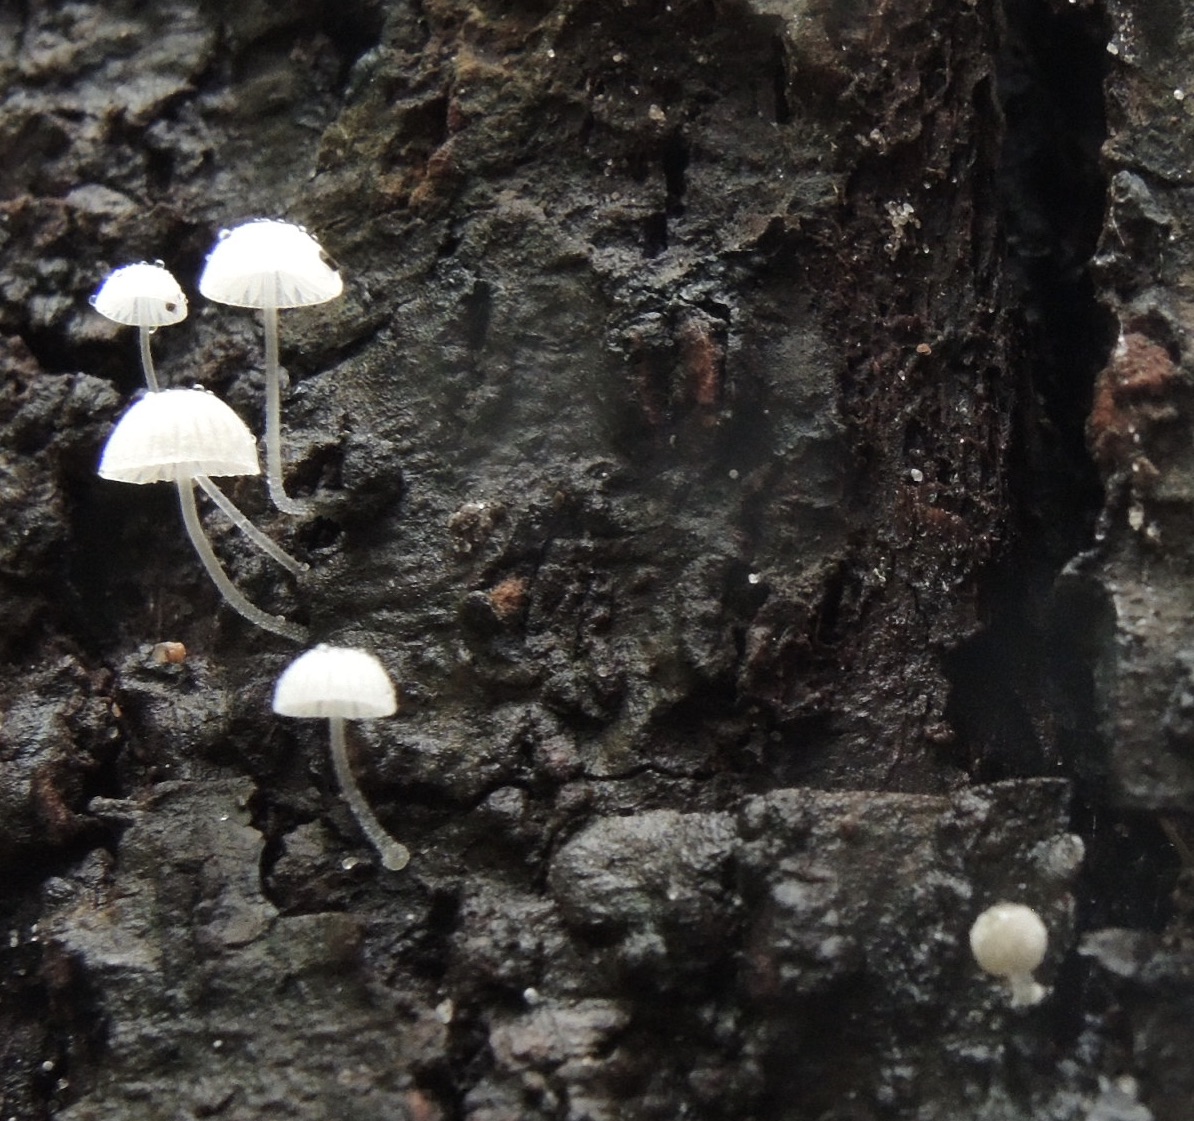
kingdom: Fungi
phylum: Basidiomycota
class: Agaricomycetes
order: Agaricales
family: Mycenaceae
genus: Mycena
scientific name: Mycena tenerrima
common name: pudret huesvamp
